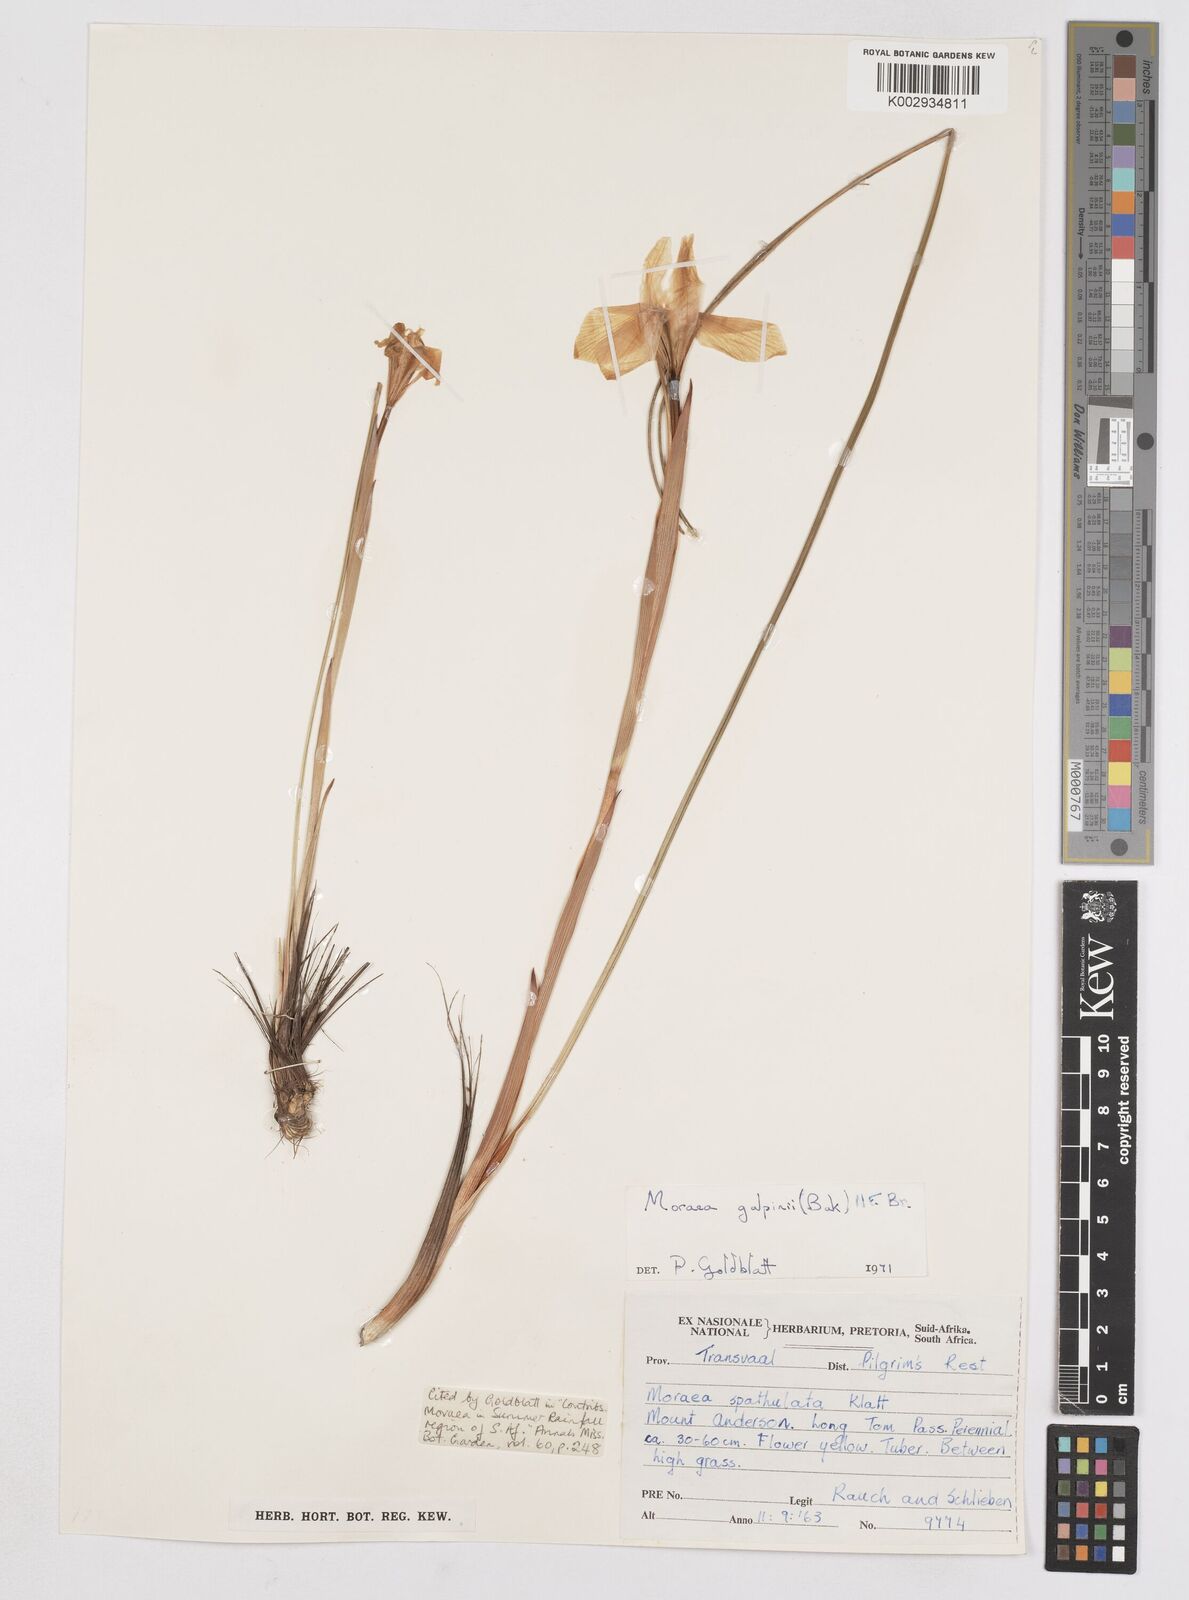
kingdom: Plantae
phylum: Tracheophyta
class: Liliopsida
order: Asparagales
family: Iridaceae
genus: Moraea
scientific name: Moraea galpinii
